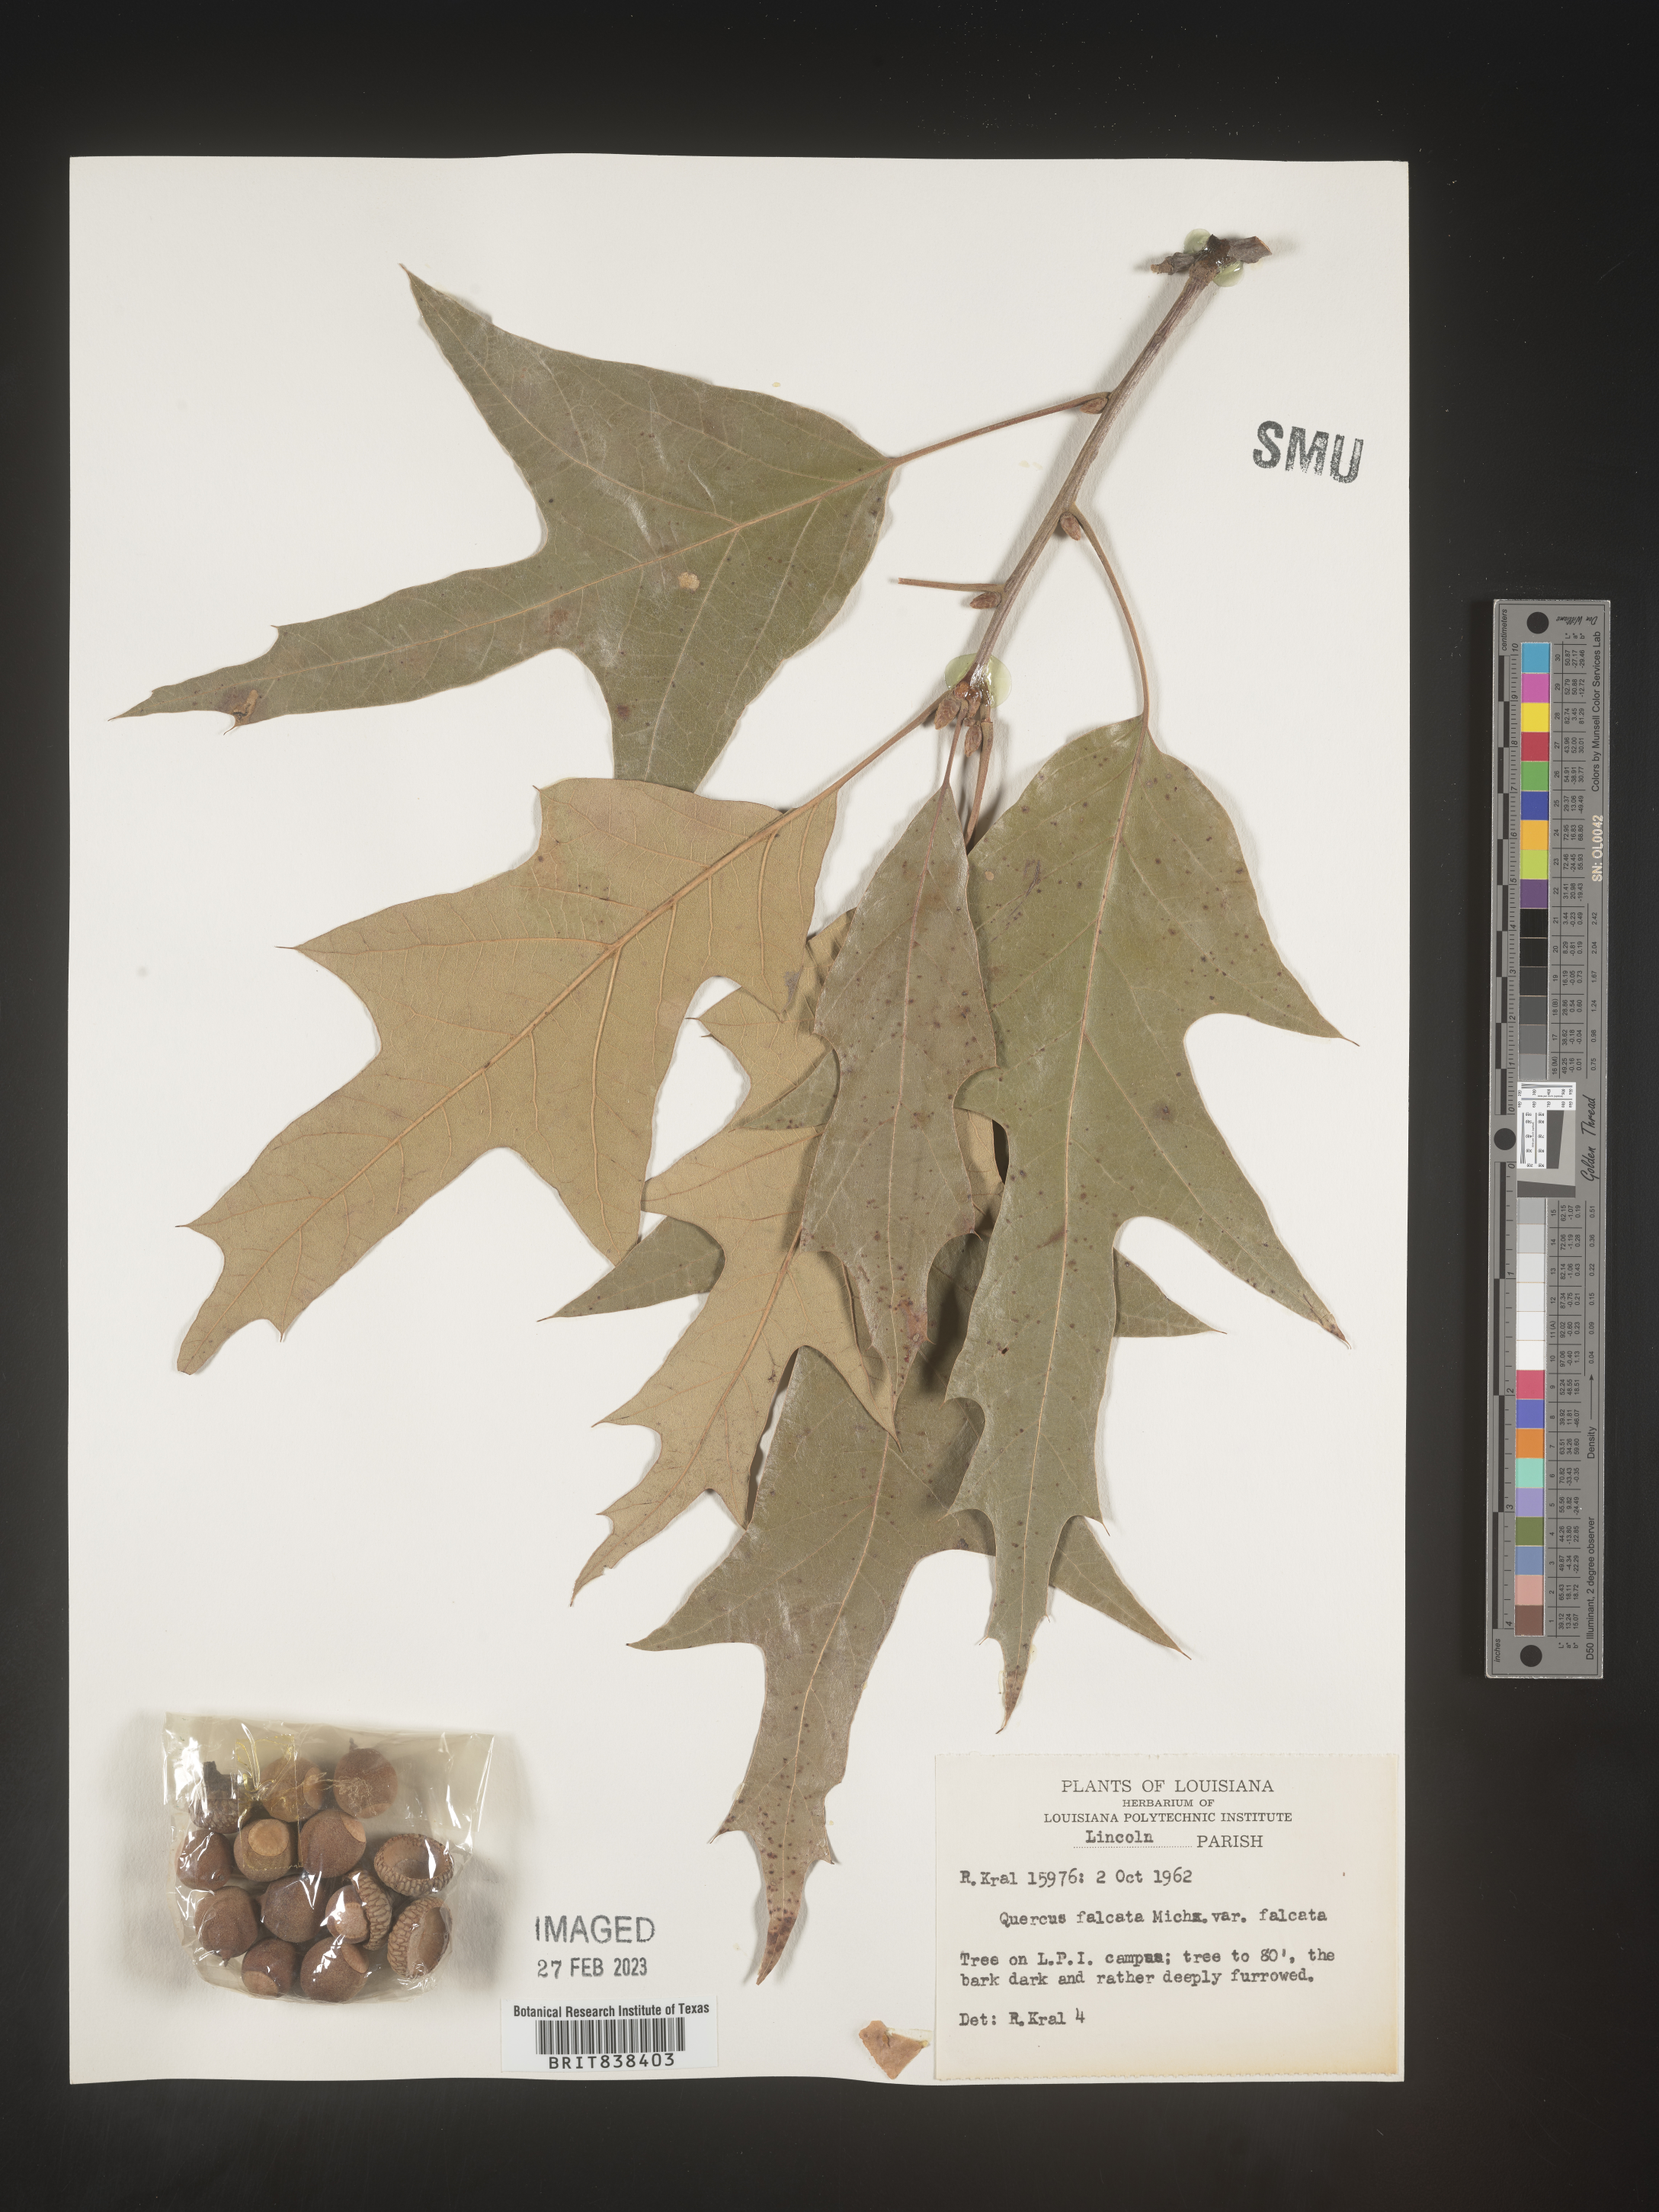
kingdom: Plantae
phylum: Tracheophyta
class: Magnoliopsida
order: Fagales
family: Fagaceae
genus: Quercus
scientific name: Quercus falcata
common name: Southern red oak
